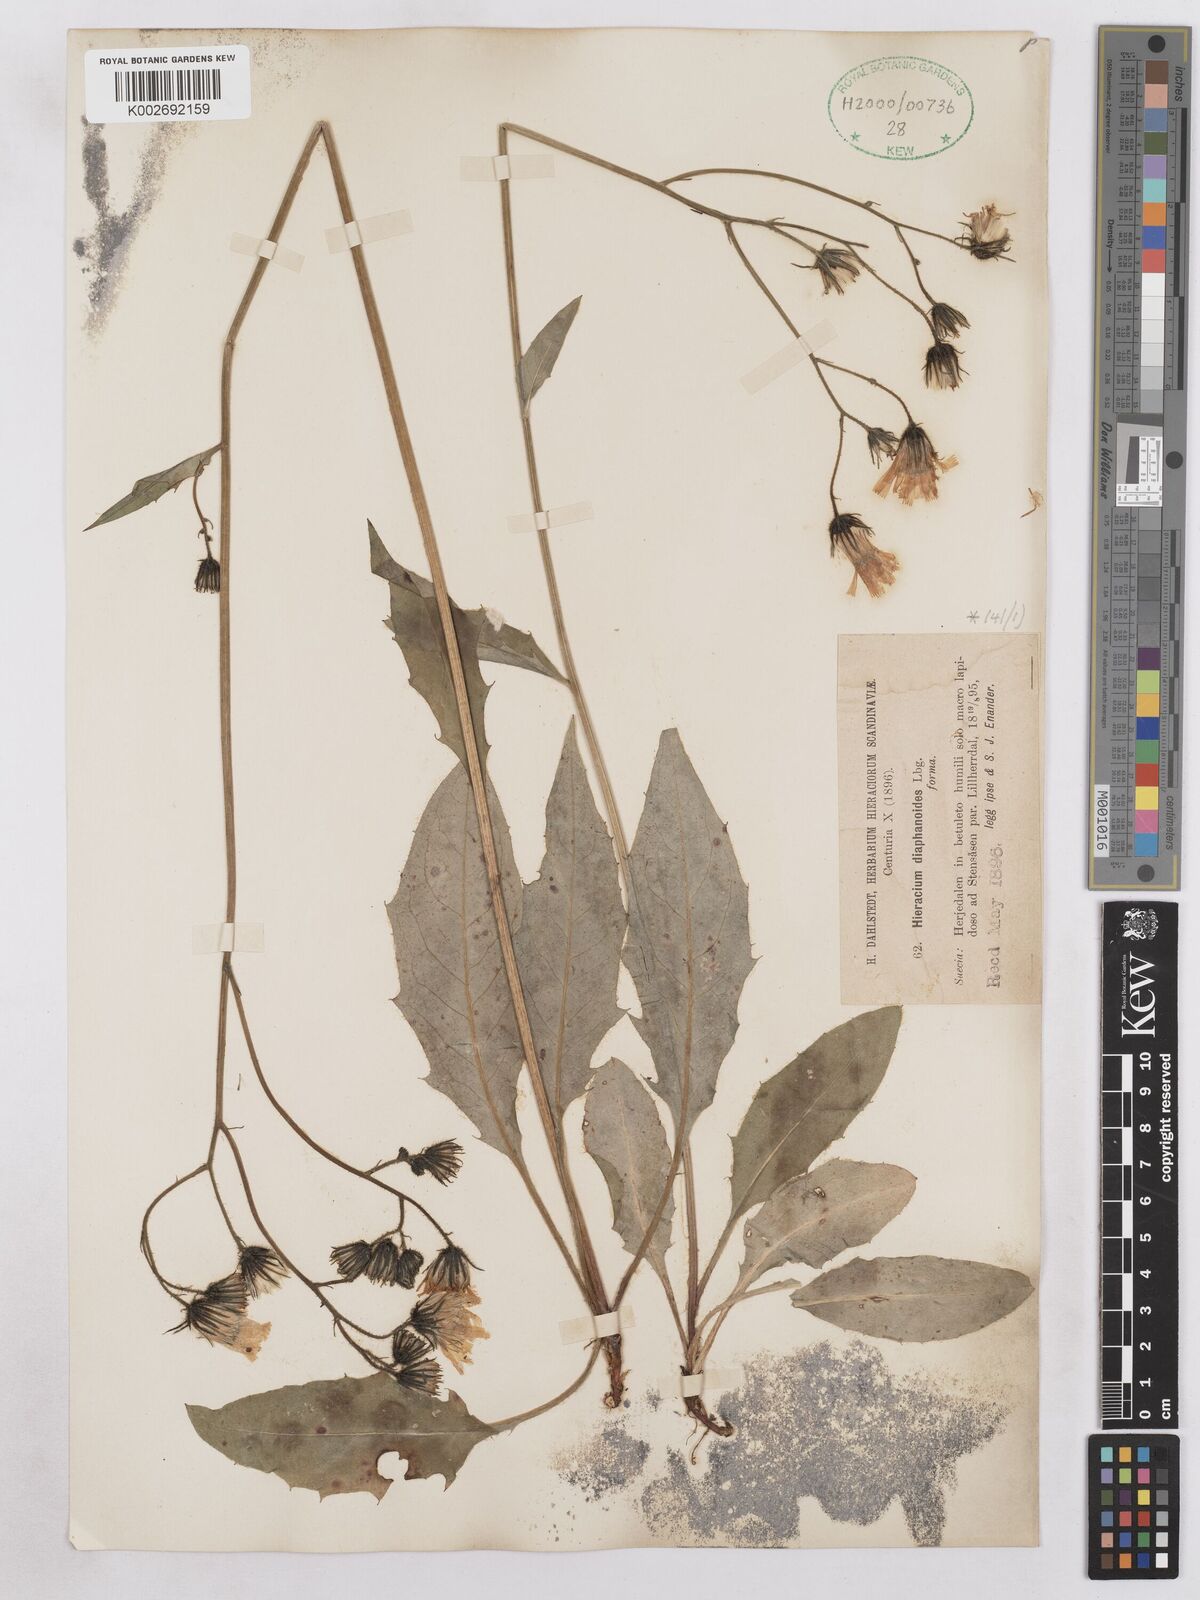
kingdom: Plantae
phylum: Tracheophyta
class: Magnoliopsida
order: Asterales
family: Asteraceae
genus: Hieracium
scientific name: Hieracium diaphanoides
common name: Fine-bracted hawkweed
